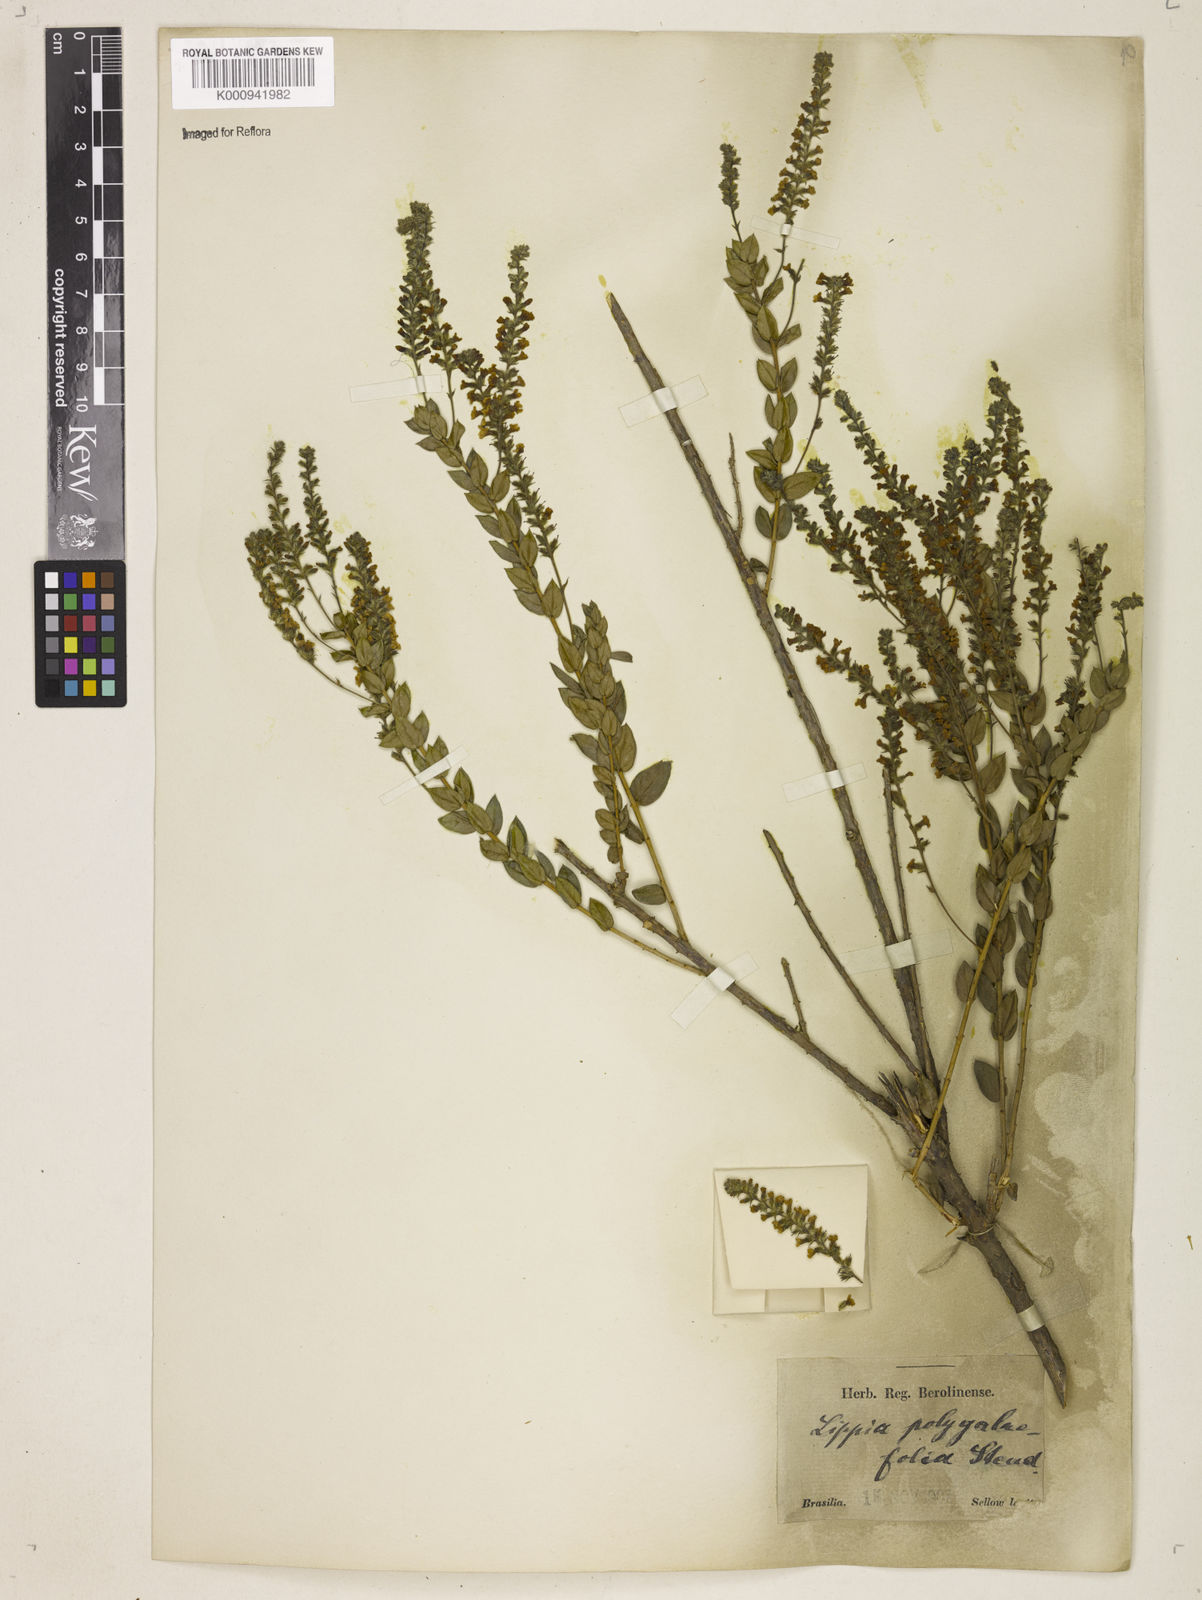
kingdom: Plantae
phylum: Tracheophyta
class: Magnoliopsida
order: Lamiales
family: Verbenaceae
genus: Aloysia
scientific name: Aloysia polygalifolia
